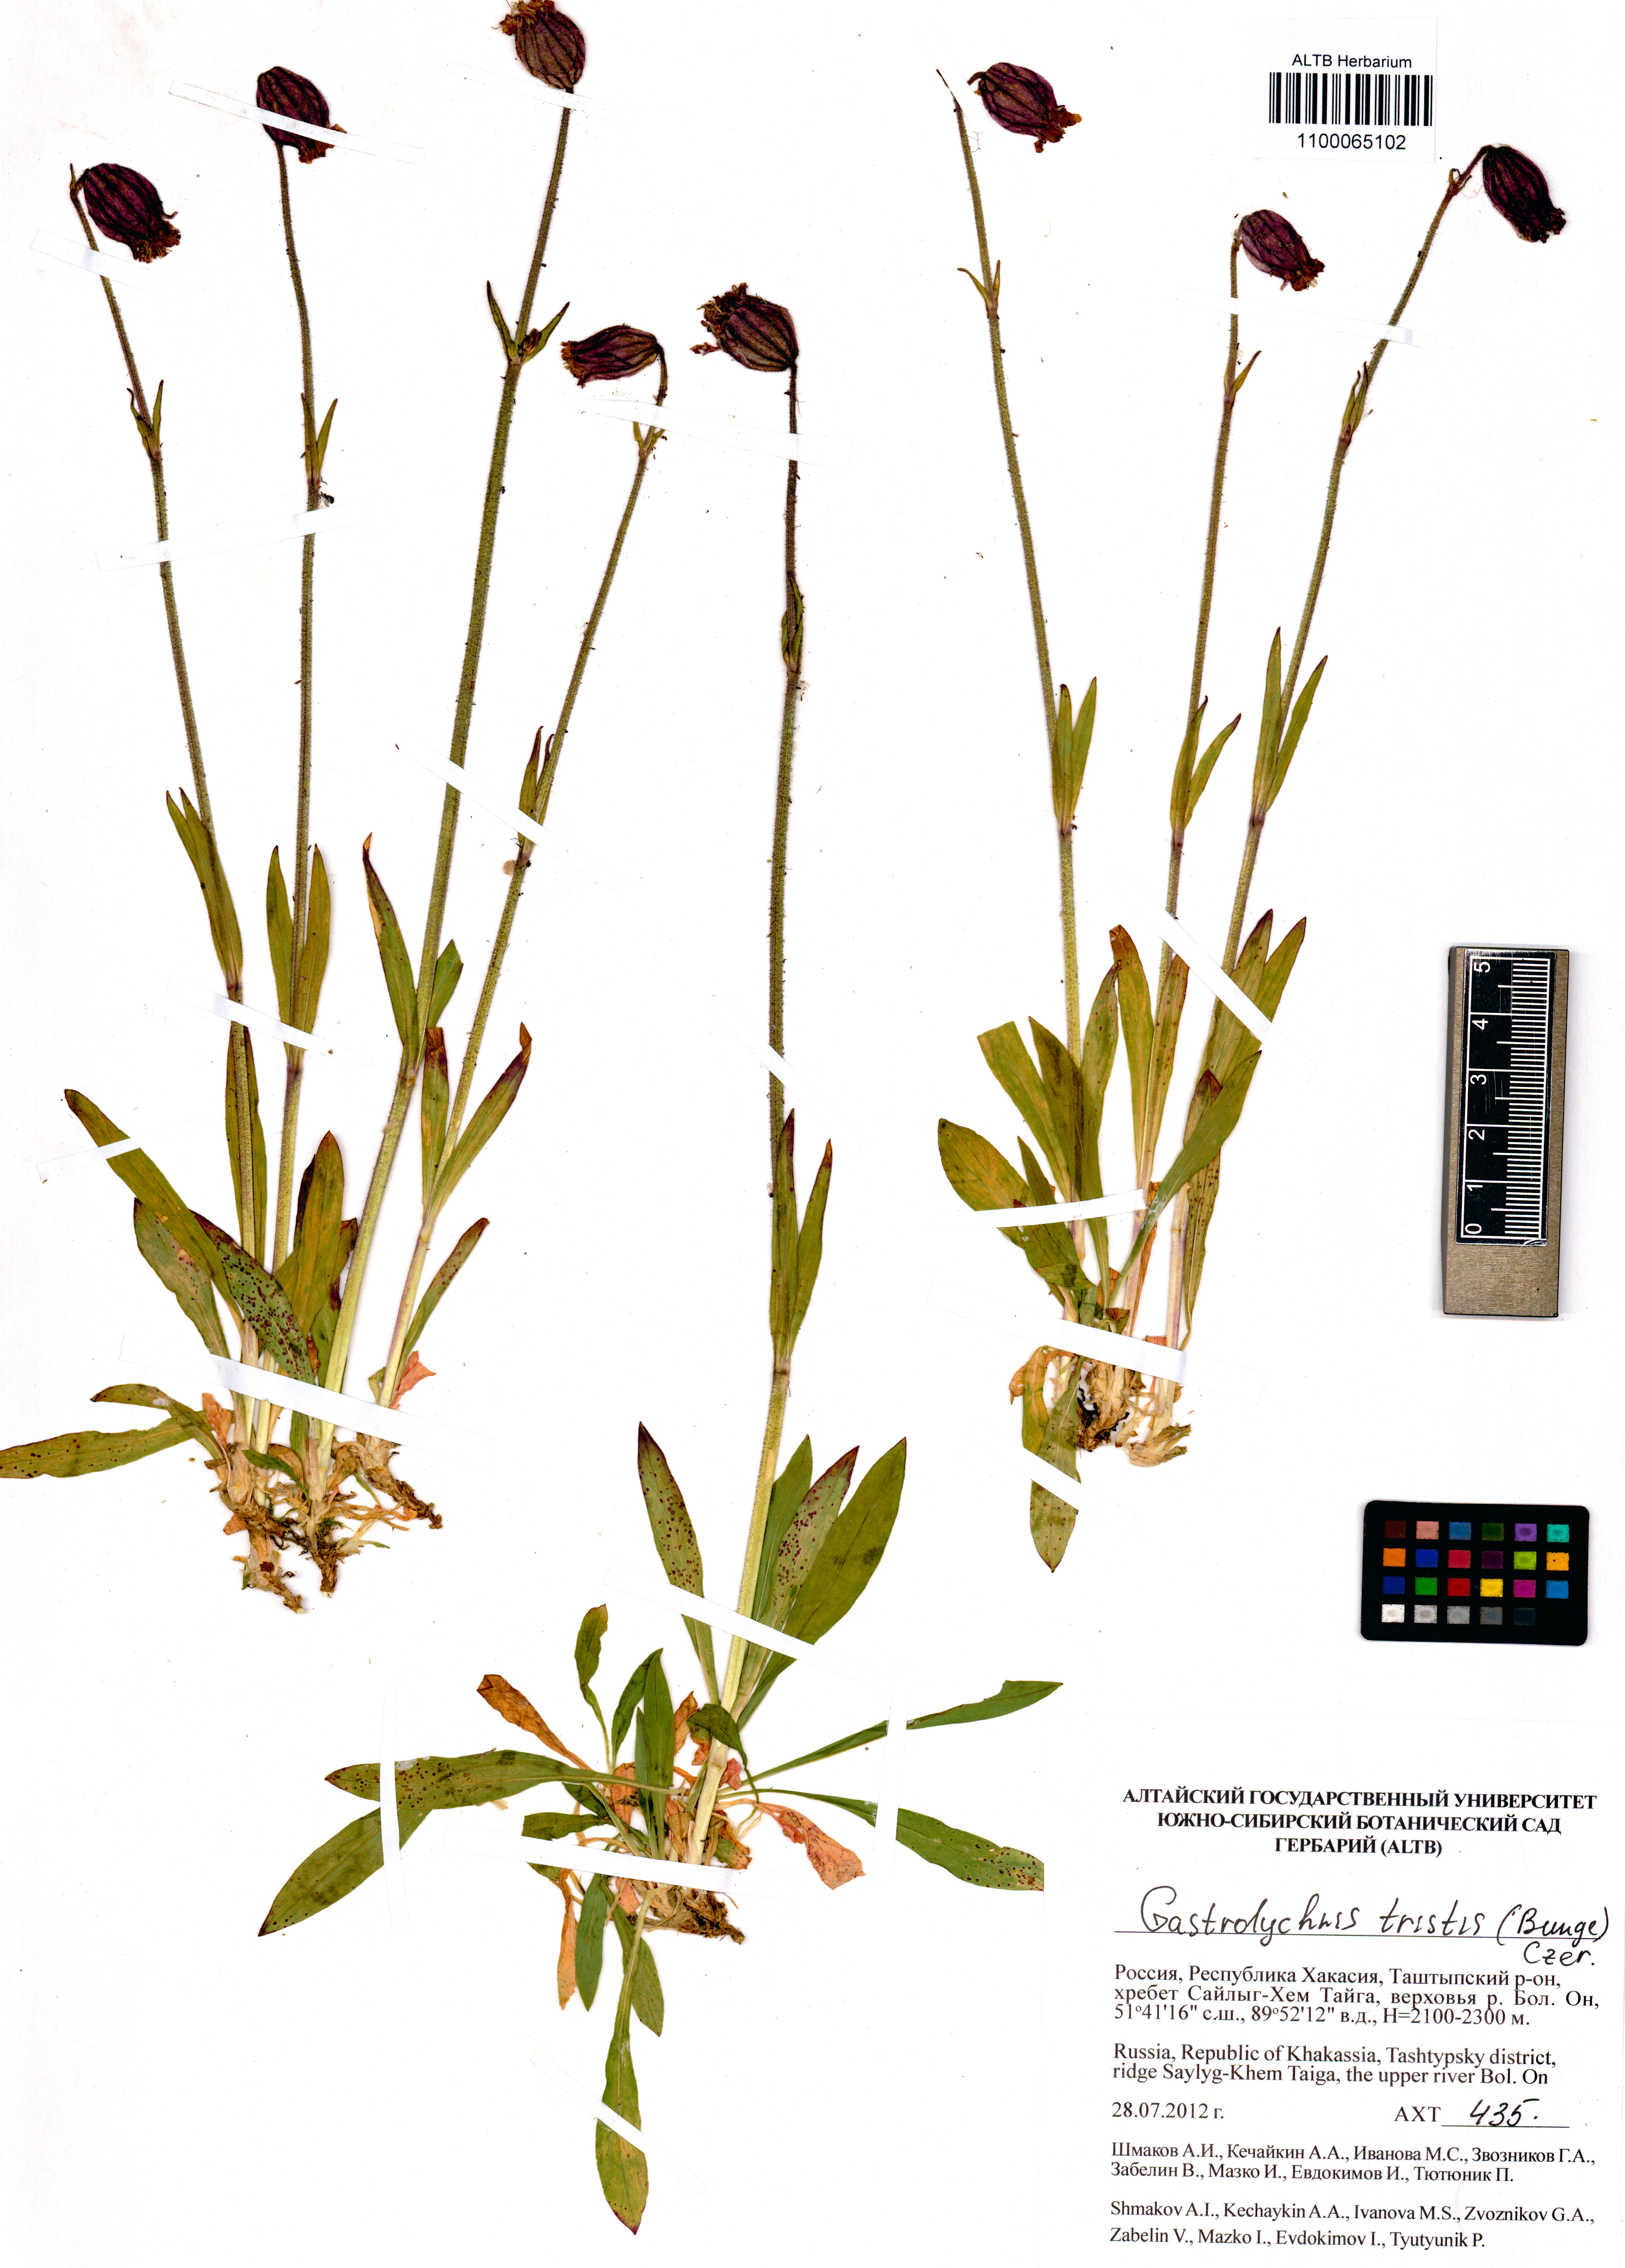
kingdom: Plantae
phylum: Tracheophyta
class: Magnoliopsida
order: Caryophyllales
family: Caryophyllaceae
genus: Silene
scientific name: Silene bungei
